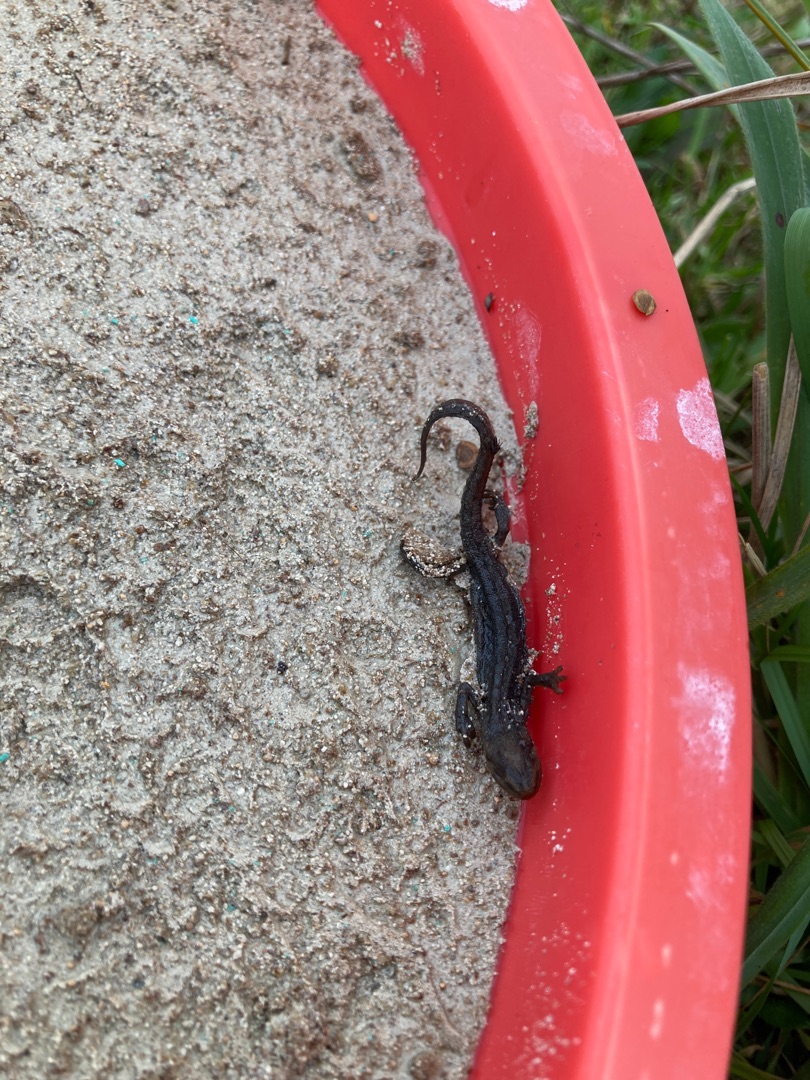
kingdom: Animalia
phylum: Chordata
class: Amphibia
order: Caudata
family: Salamandridae
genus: Lissotriton
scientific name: Lissotriton vulgaris
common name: Lille vandsalamander
